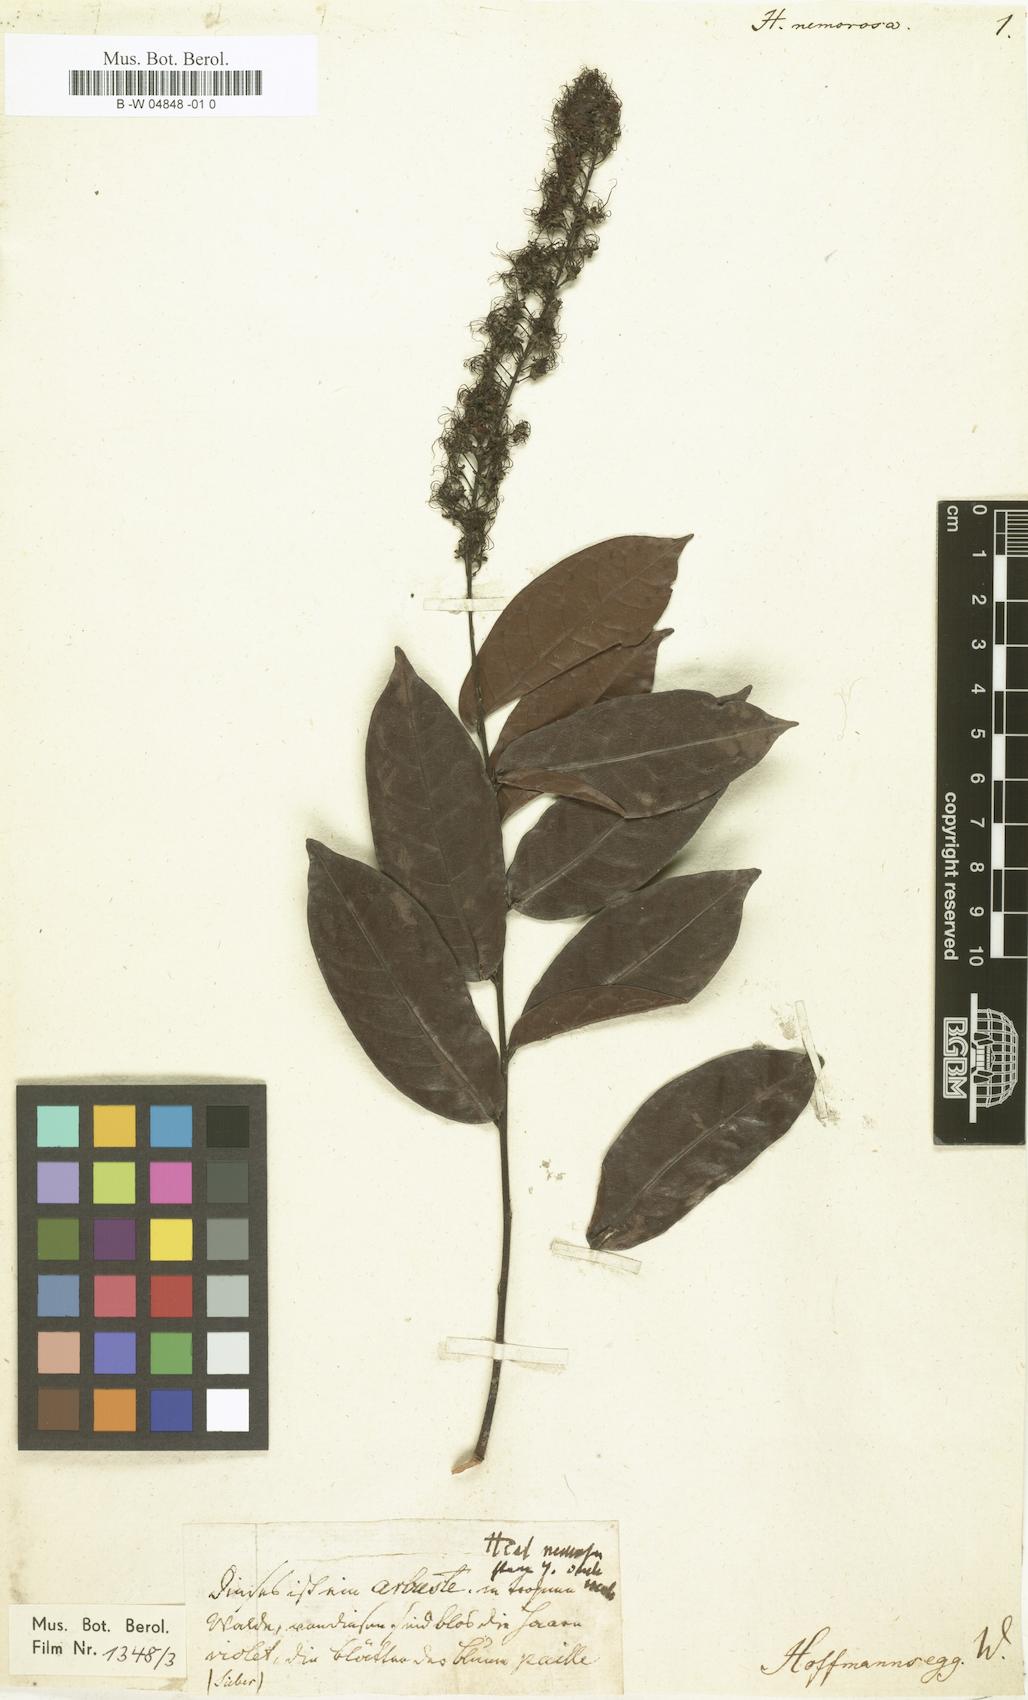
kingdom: Plantae
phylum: Tracheophyta
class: Magnoliopsida
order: Malpighiales
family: Chrysobalanaceae
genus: Hirtella
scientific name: Hirtella racemosa
